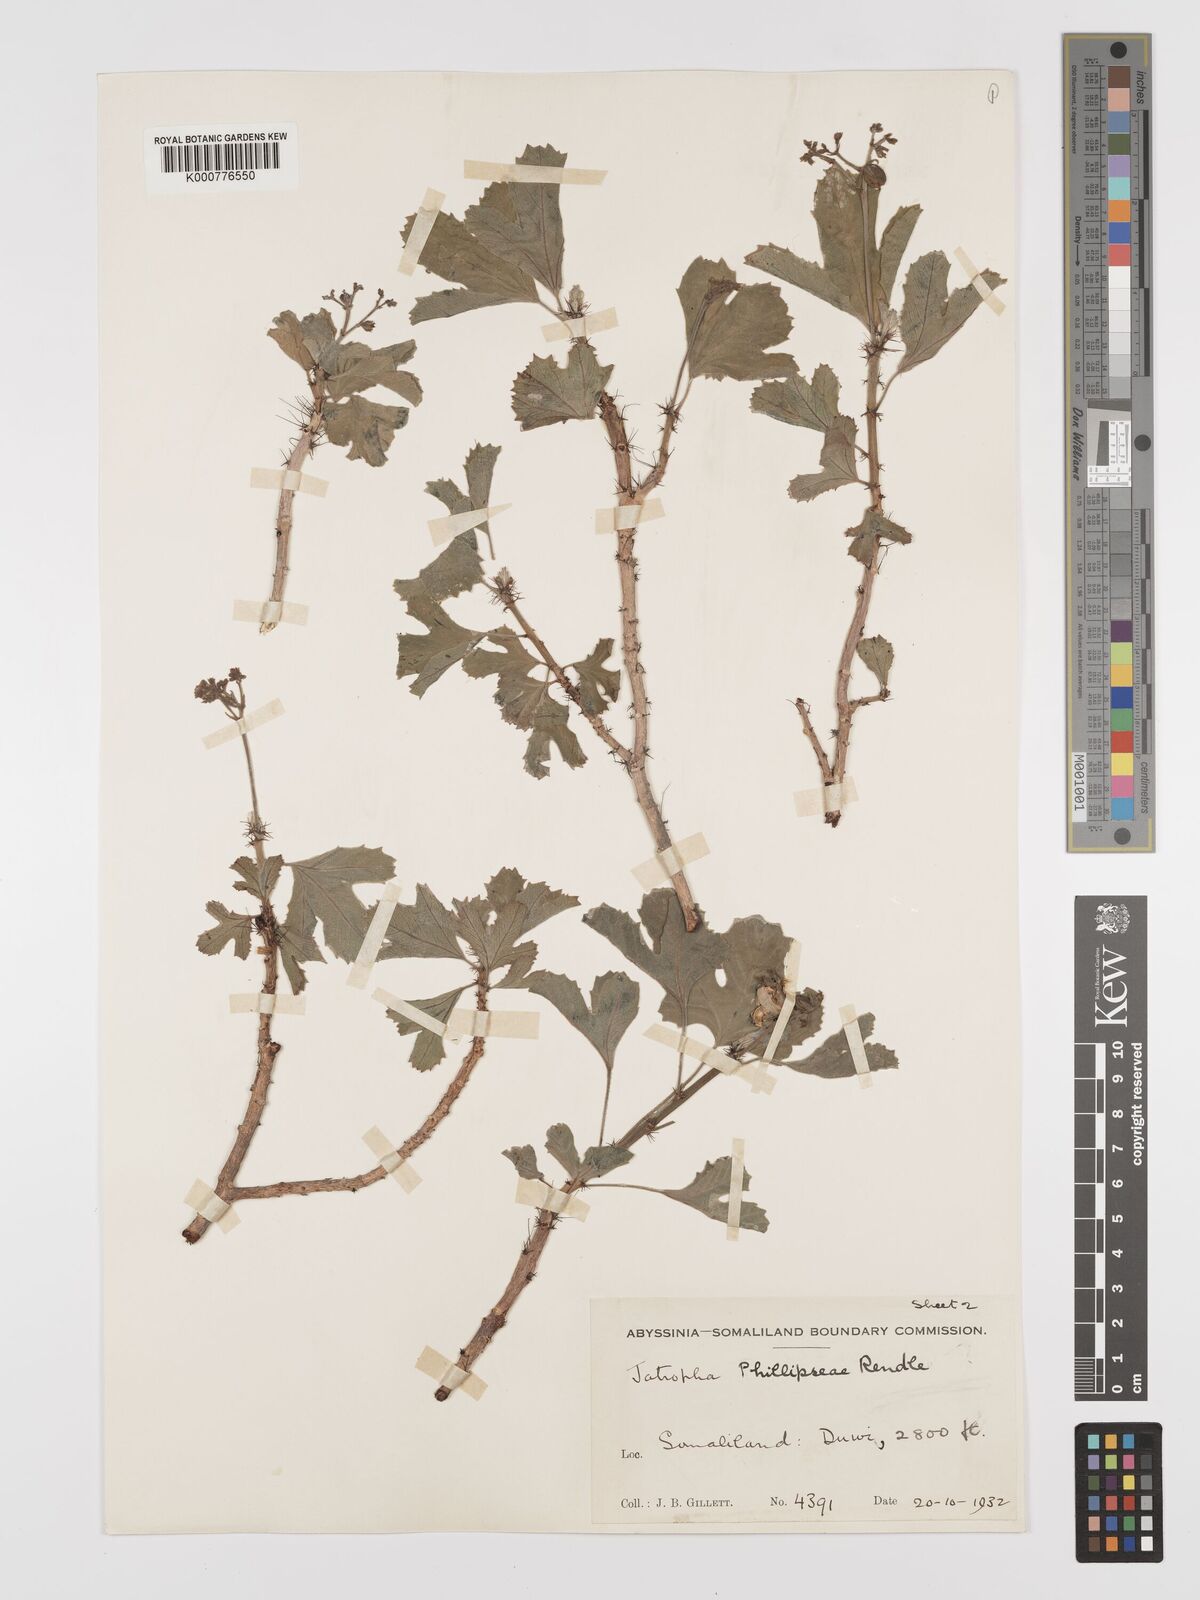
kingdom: Plantae
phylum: Tracheophyta
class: Magnoliopsida
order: Malpighiales
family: Euphorbiaceae
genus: Jatropha
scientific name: Jatropha phillipseae
